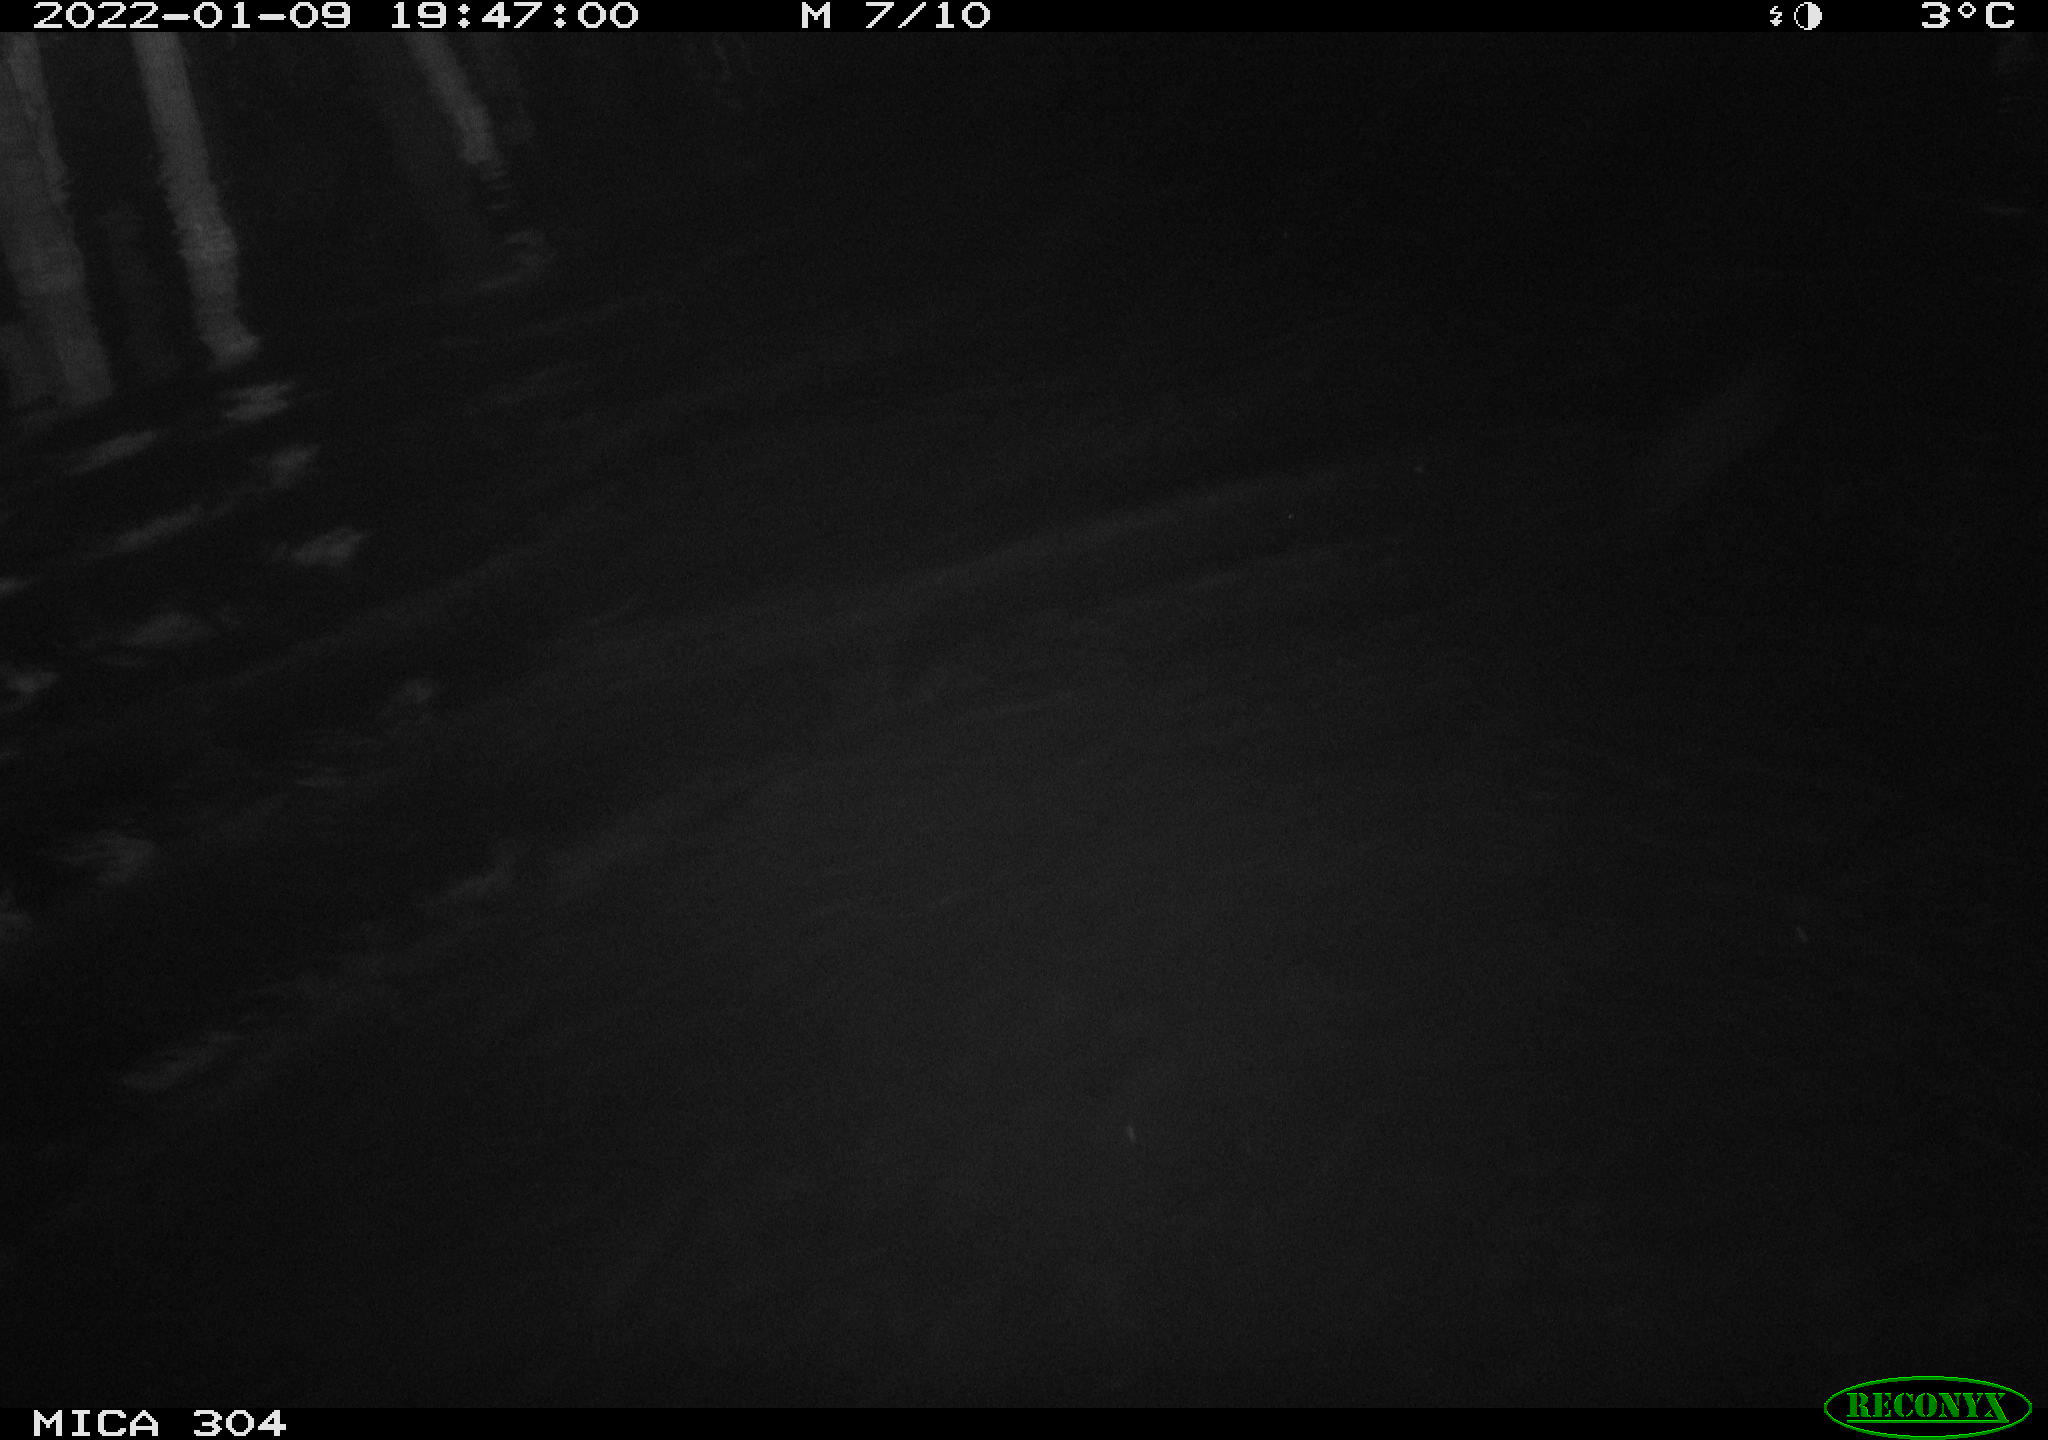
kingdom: Animalia
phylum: Chordata
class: Aves
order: Anseriformes
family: Anatidae
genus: Anas
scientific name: Anas
